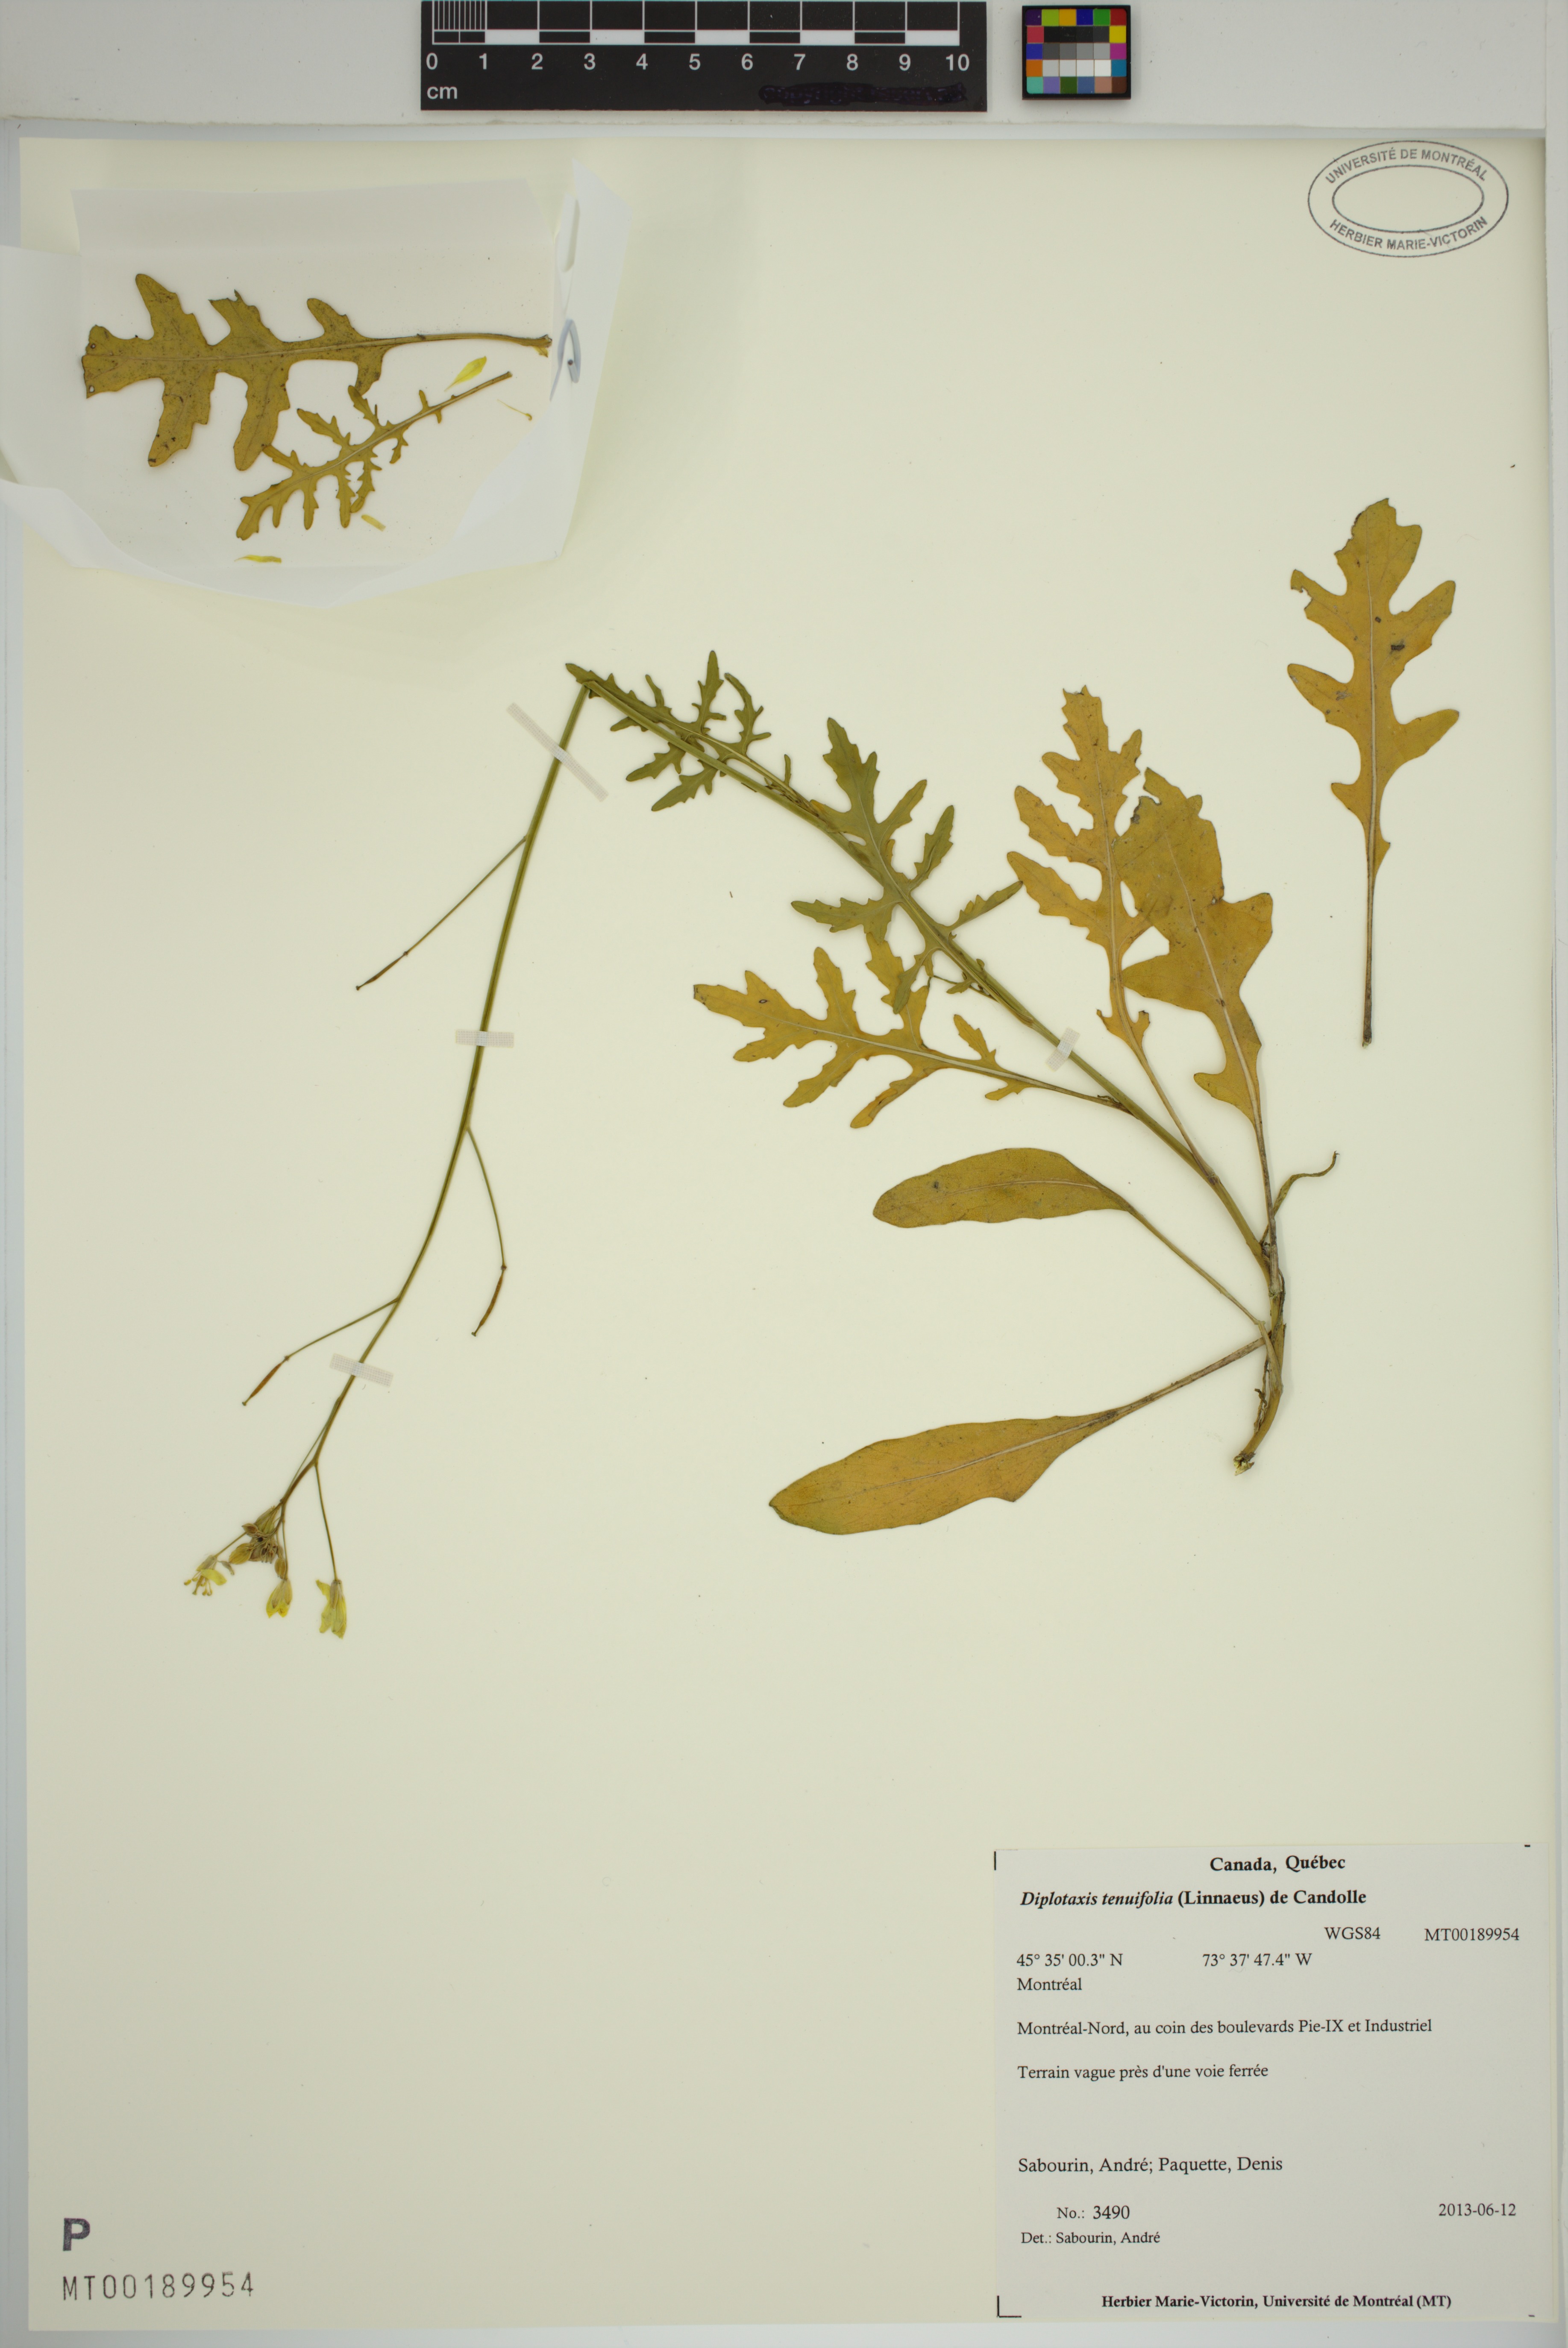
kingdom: Plantae
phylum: Tracheophyta
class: Magnoliopsida
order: Brassicales
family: Brassicaceae
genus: Diplotaxis
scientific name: Diplotaxis tenuifolia
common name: Perennial wall-rocket
